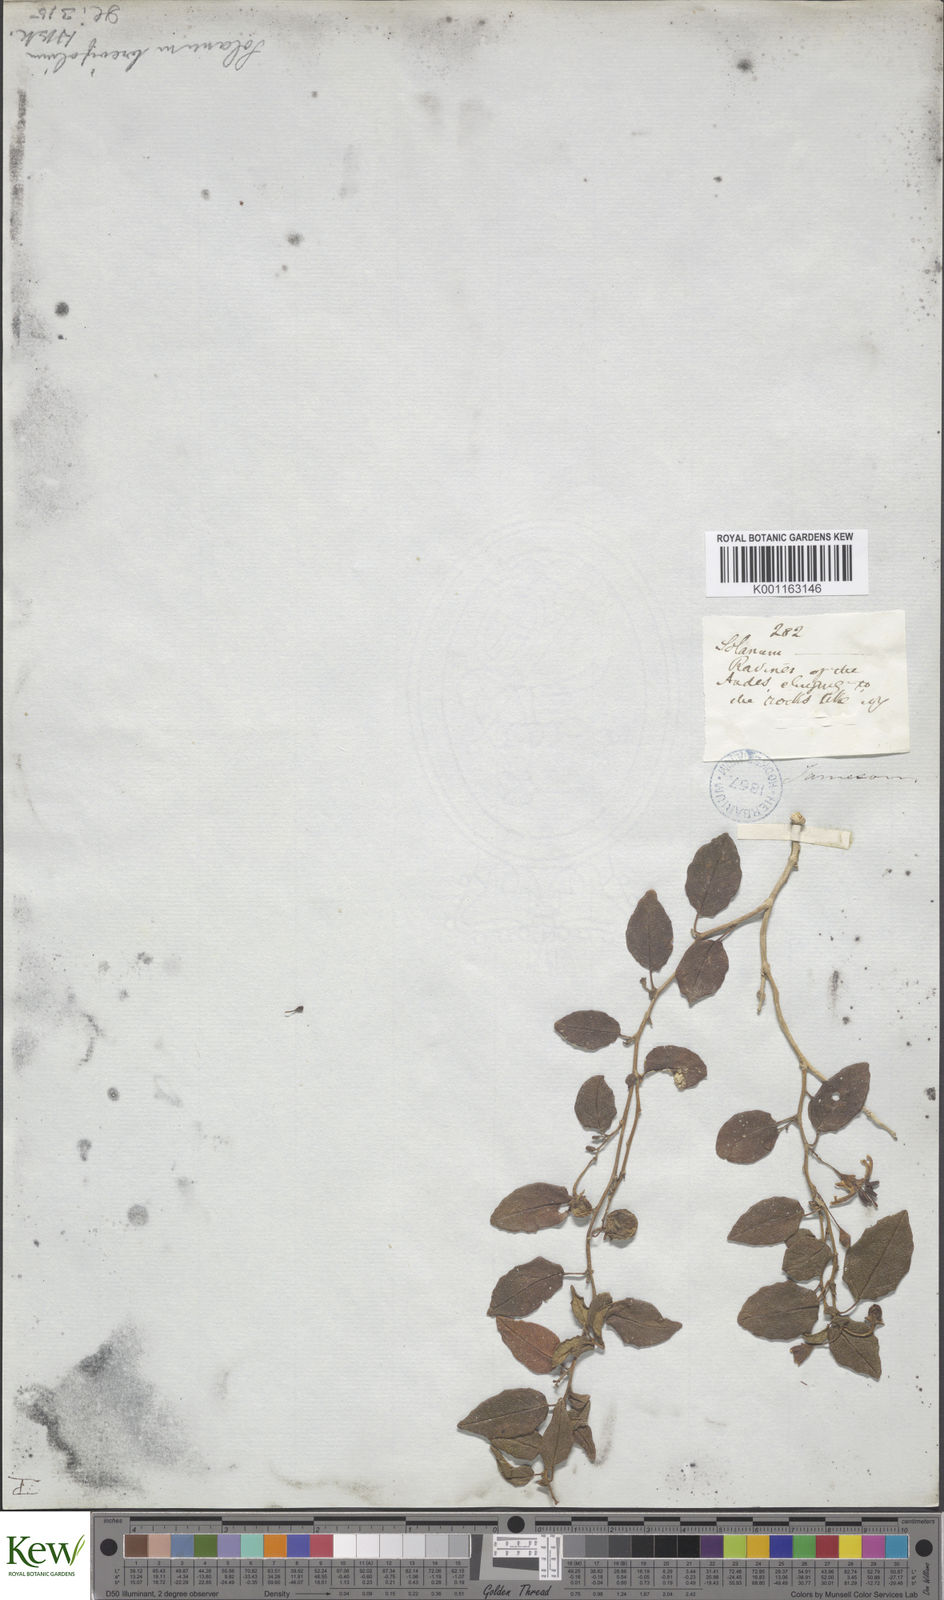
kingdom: Plantae
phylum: Tracheophyta
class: Magnoliopsida
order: Solanales
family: Solanaceae
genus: Solanum
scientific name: Solanum brevifolium
